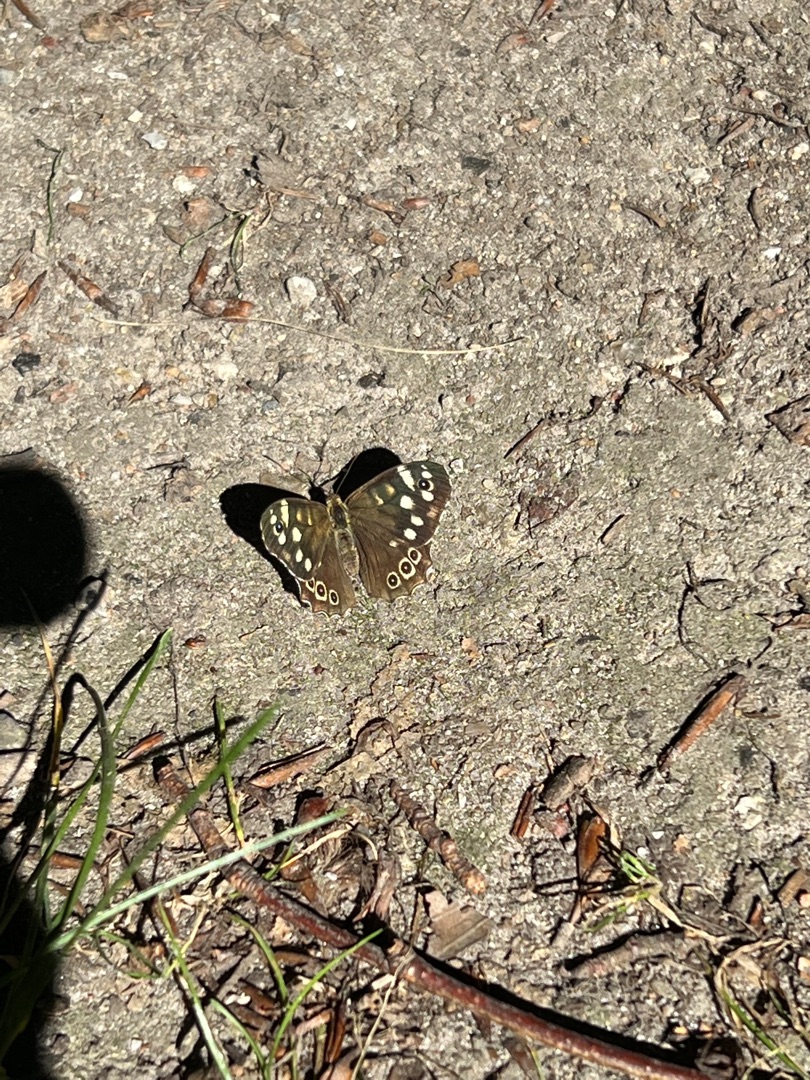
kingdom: Animalia
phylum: Arthropoda
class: Insecta
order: Lepidoptera
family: Nymphalidae
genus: Pararge
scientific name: Pararge aegeria
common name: Skovrandøje
